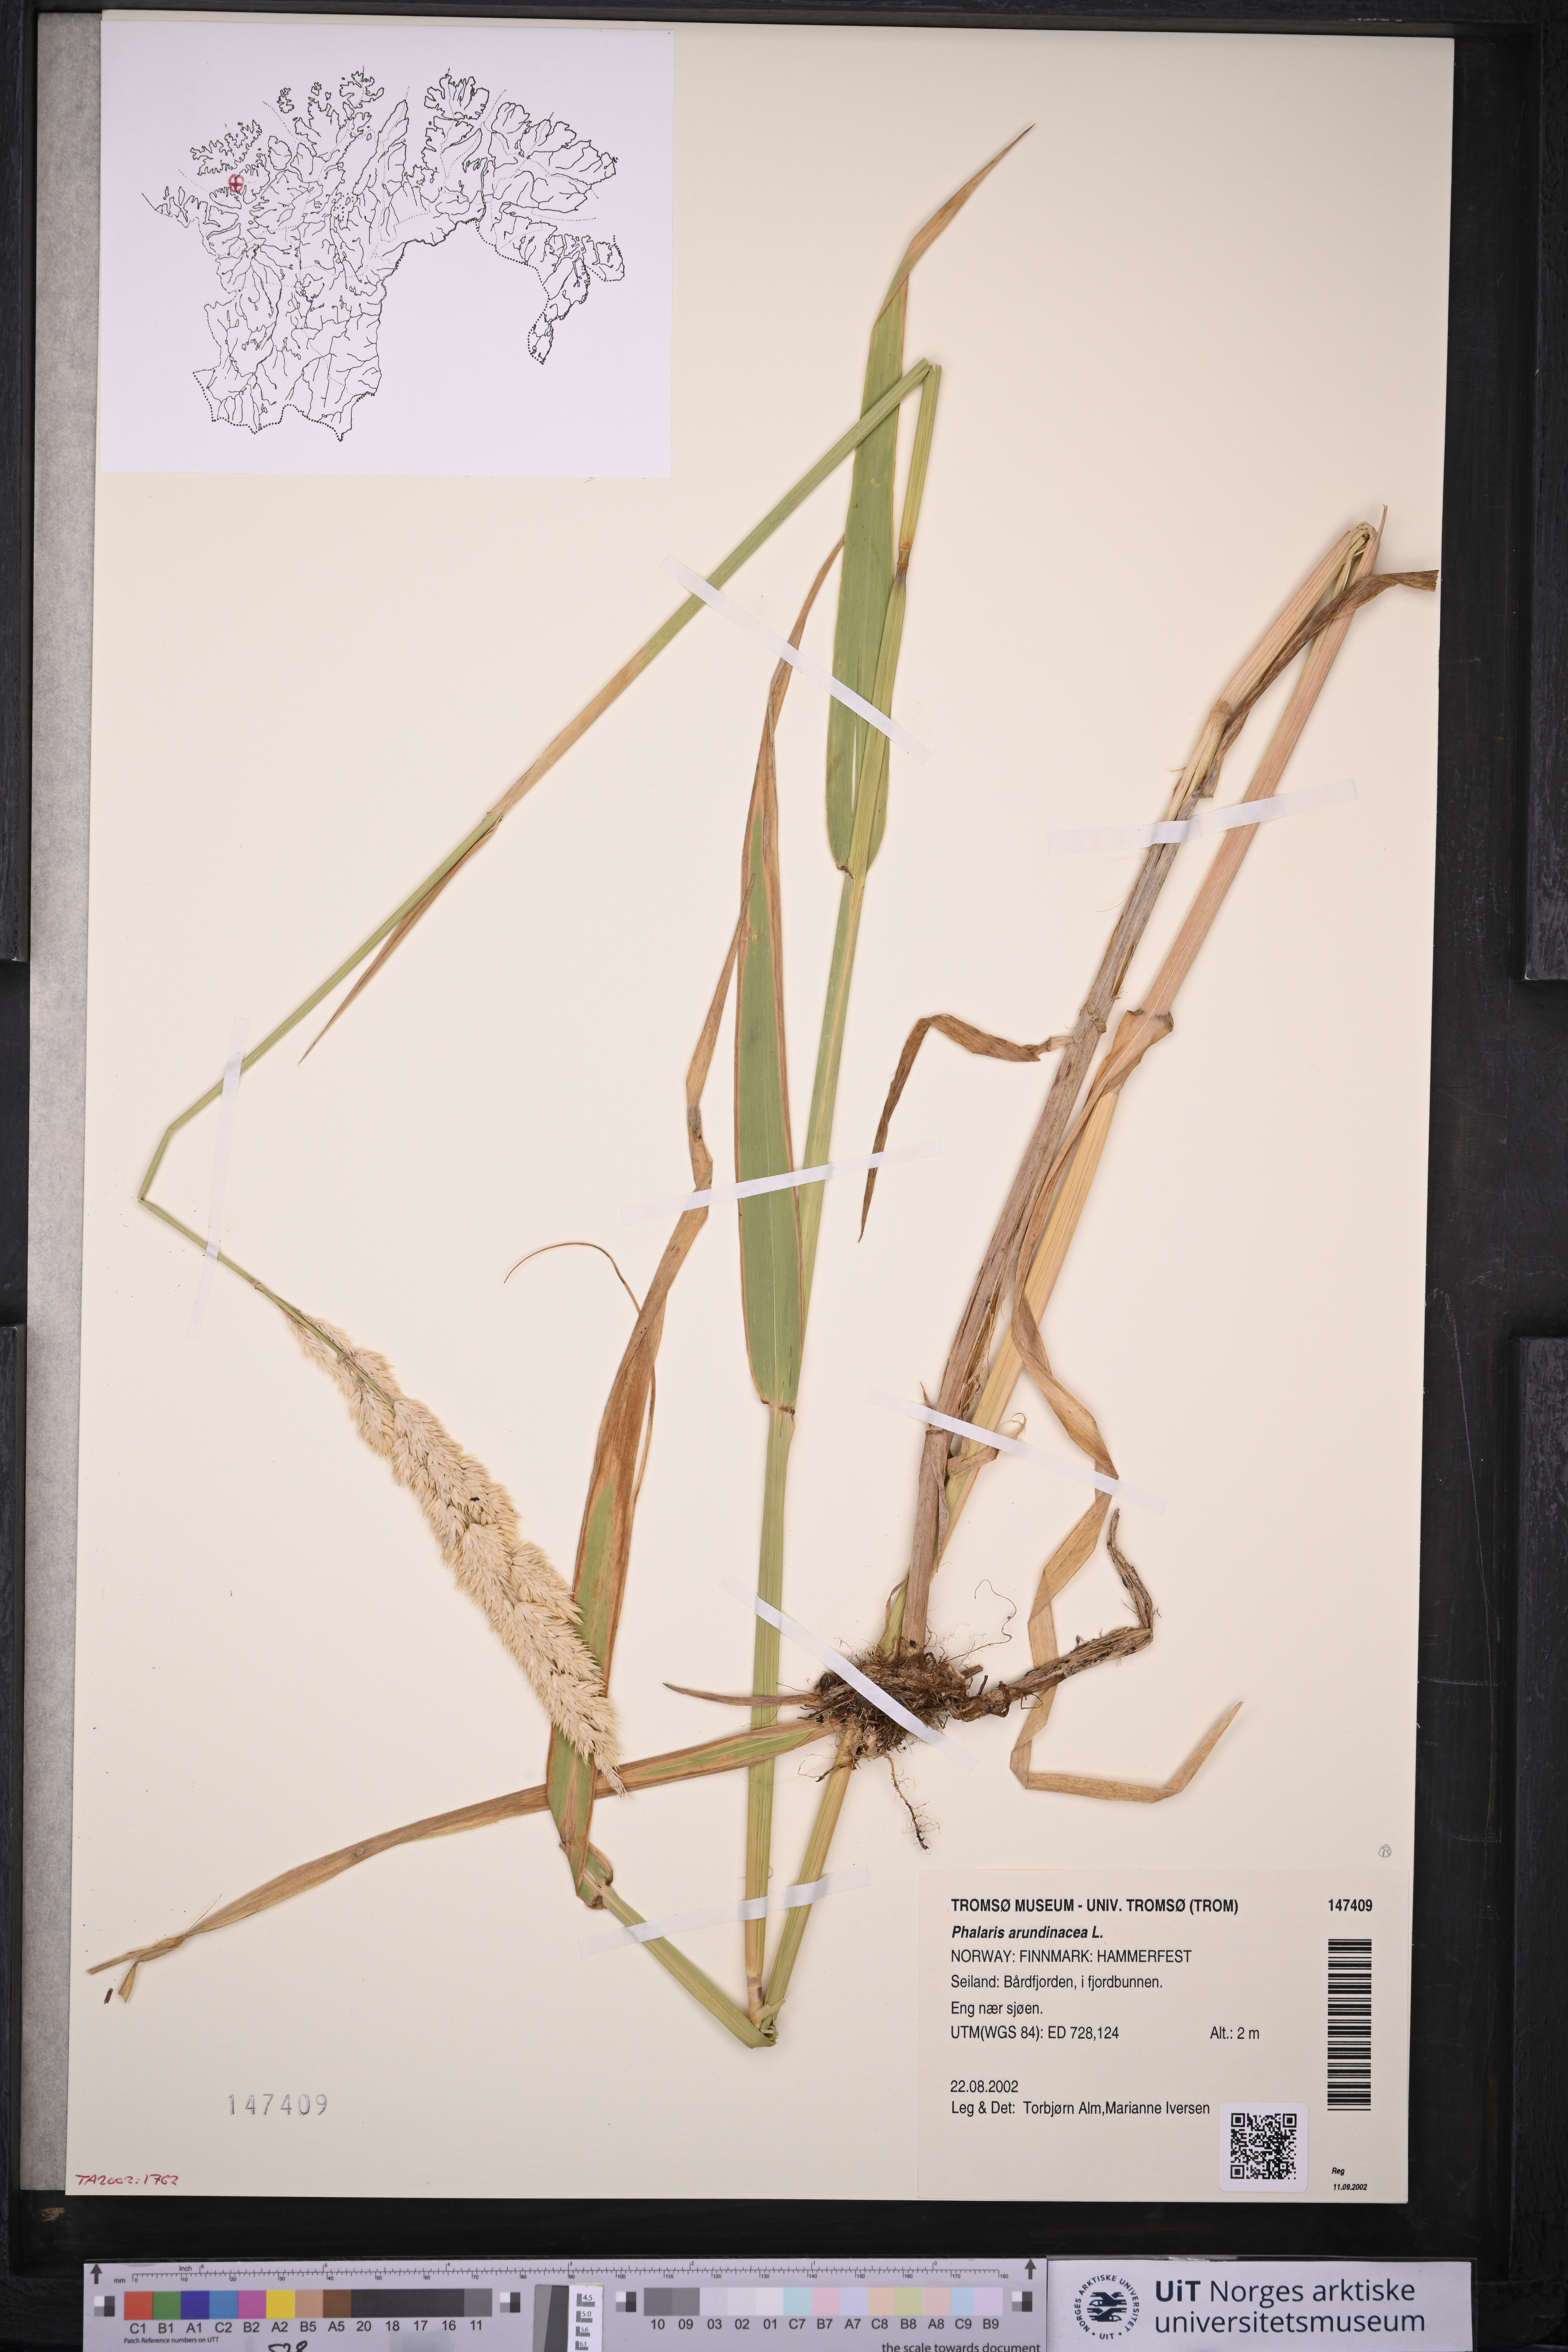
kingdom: Plantae
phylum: Tracheophyta
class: Liliopsida
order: Poales
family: Poaceae
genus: Phalaris
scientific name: Phalaris arundinacea
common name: Reed canary-grass
